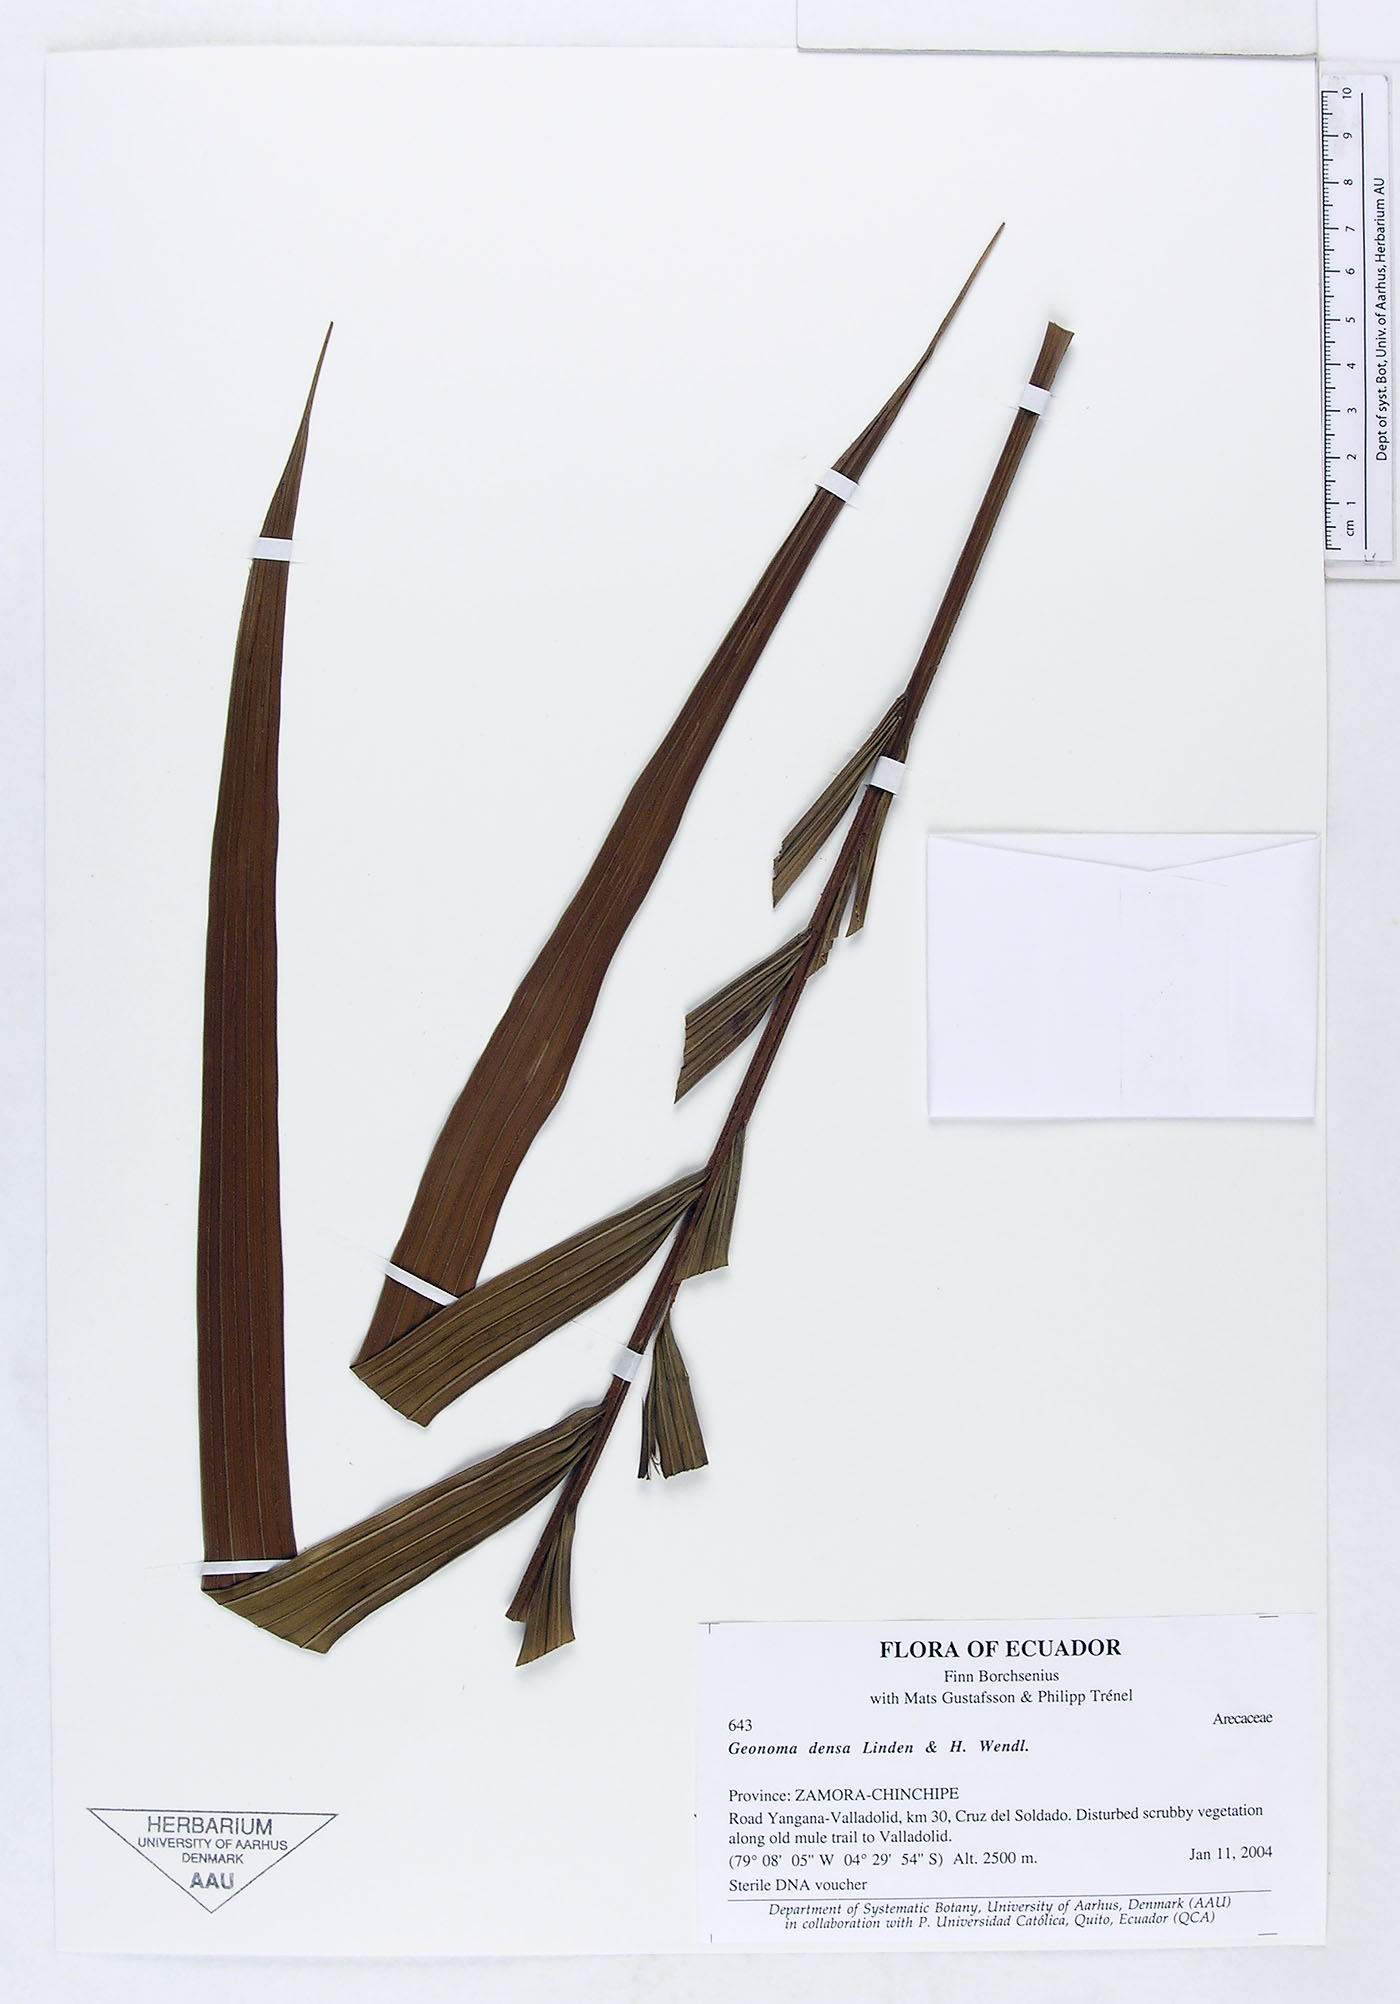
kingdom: Plantae
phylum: Tracheophyta
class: Liliopsida
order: Arecales
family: Arecaceae
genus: Geonoma
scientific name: Geonoma undata
